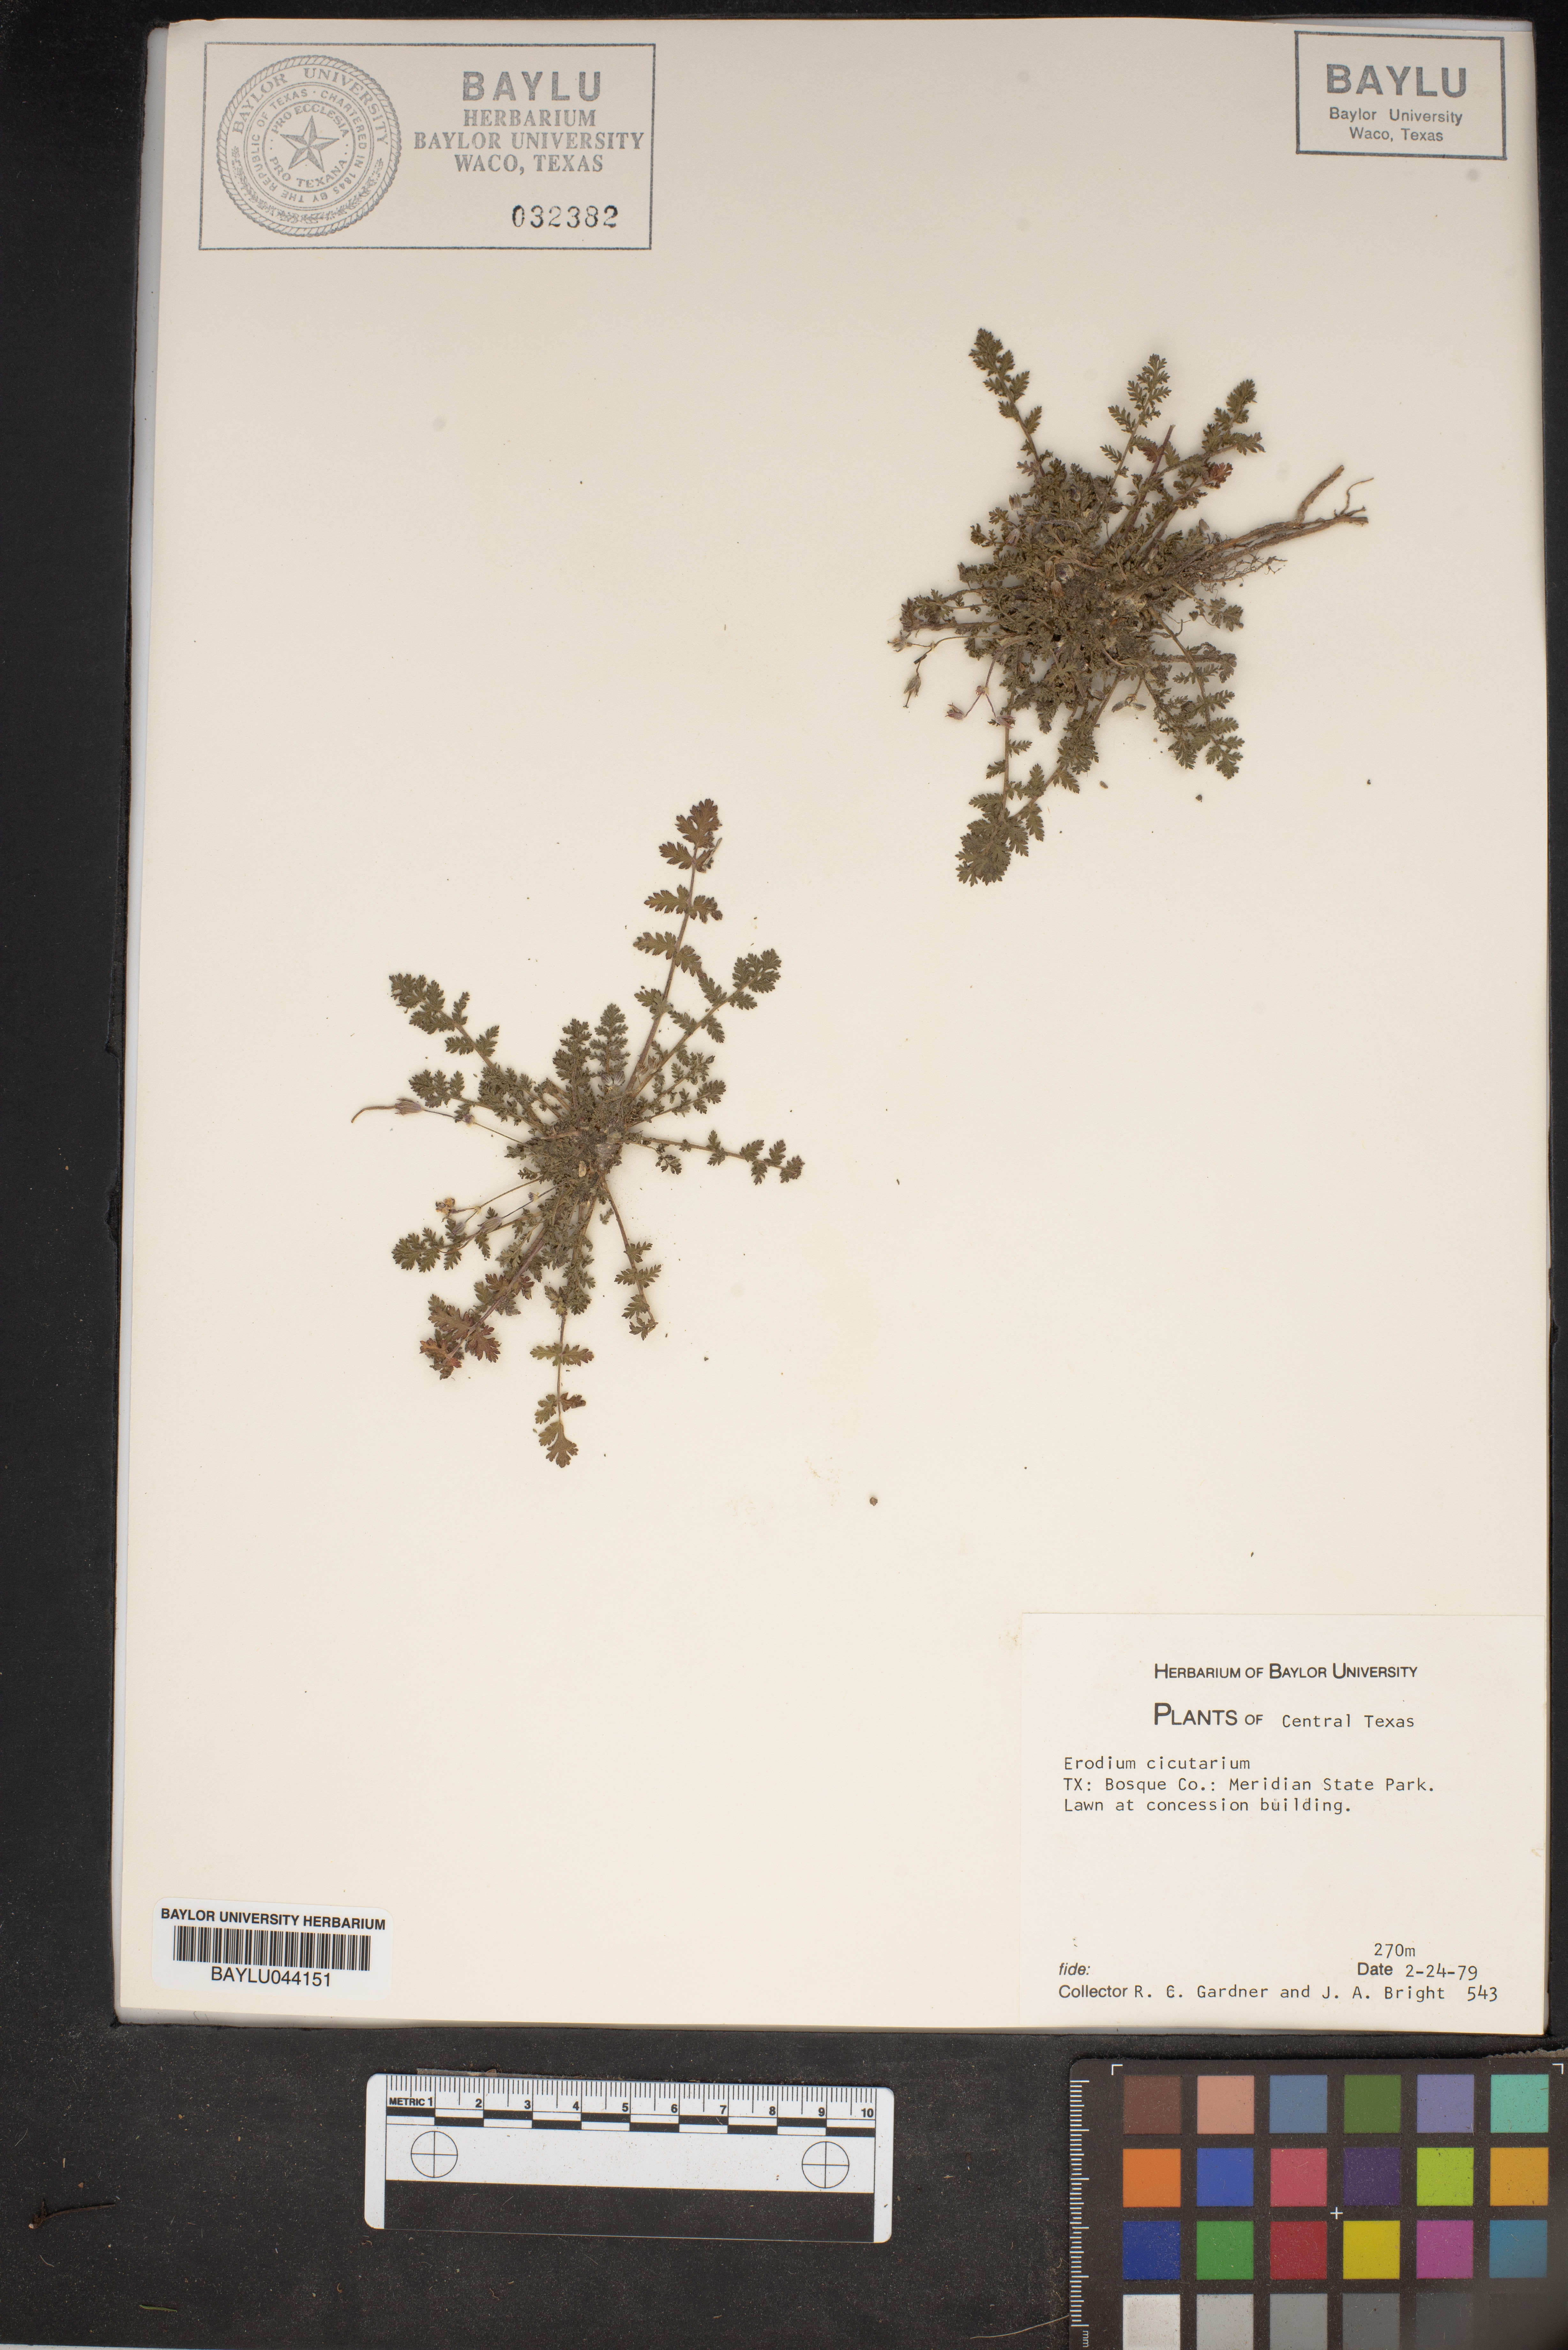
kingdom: Plantae
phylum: Tracheophyta
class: Magnoliopsida
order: Geraniales
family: Geraniaceae
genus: Erodium
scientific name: Erodium cicutarium
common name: Common stork's-bill
